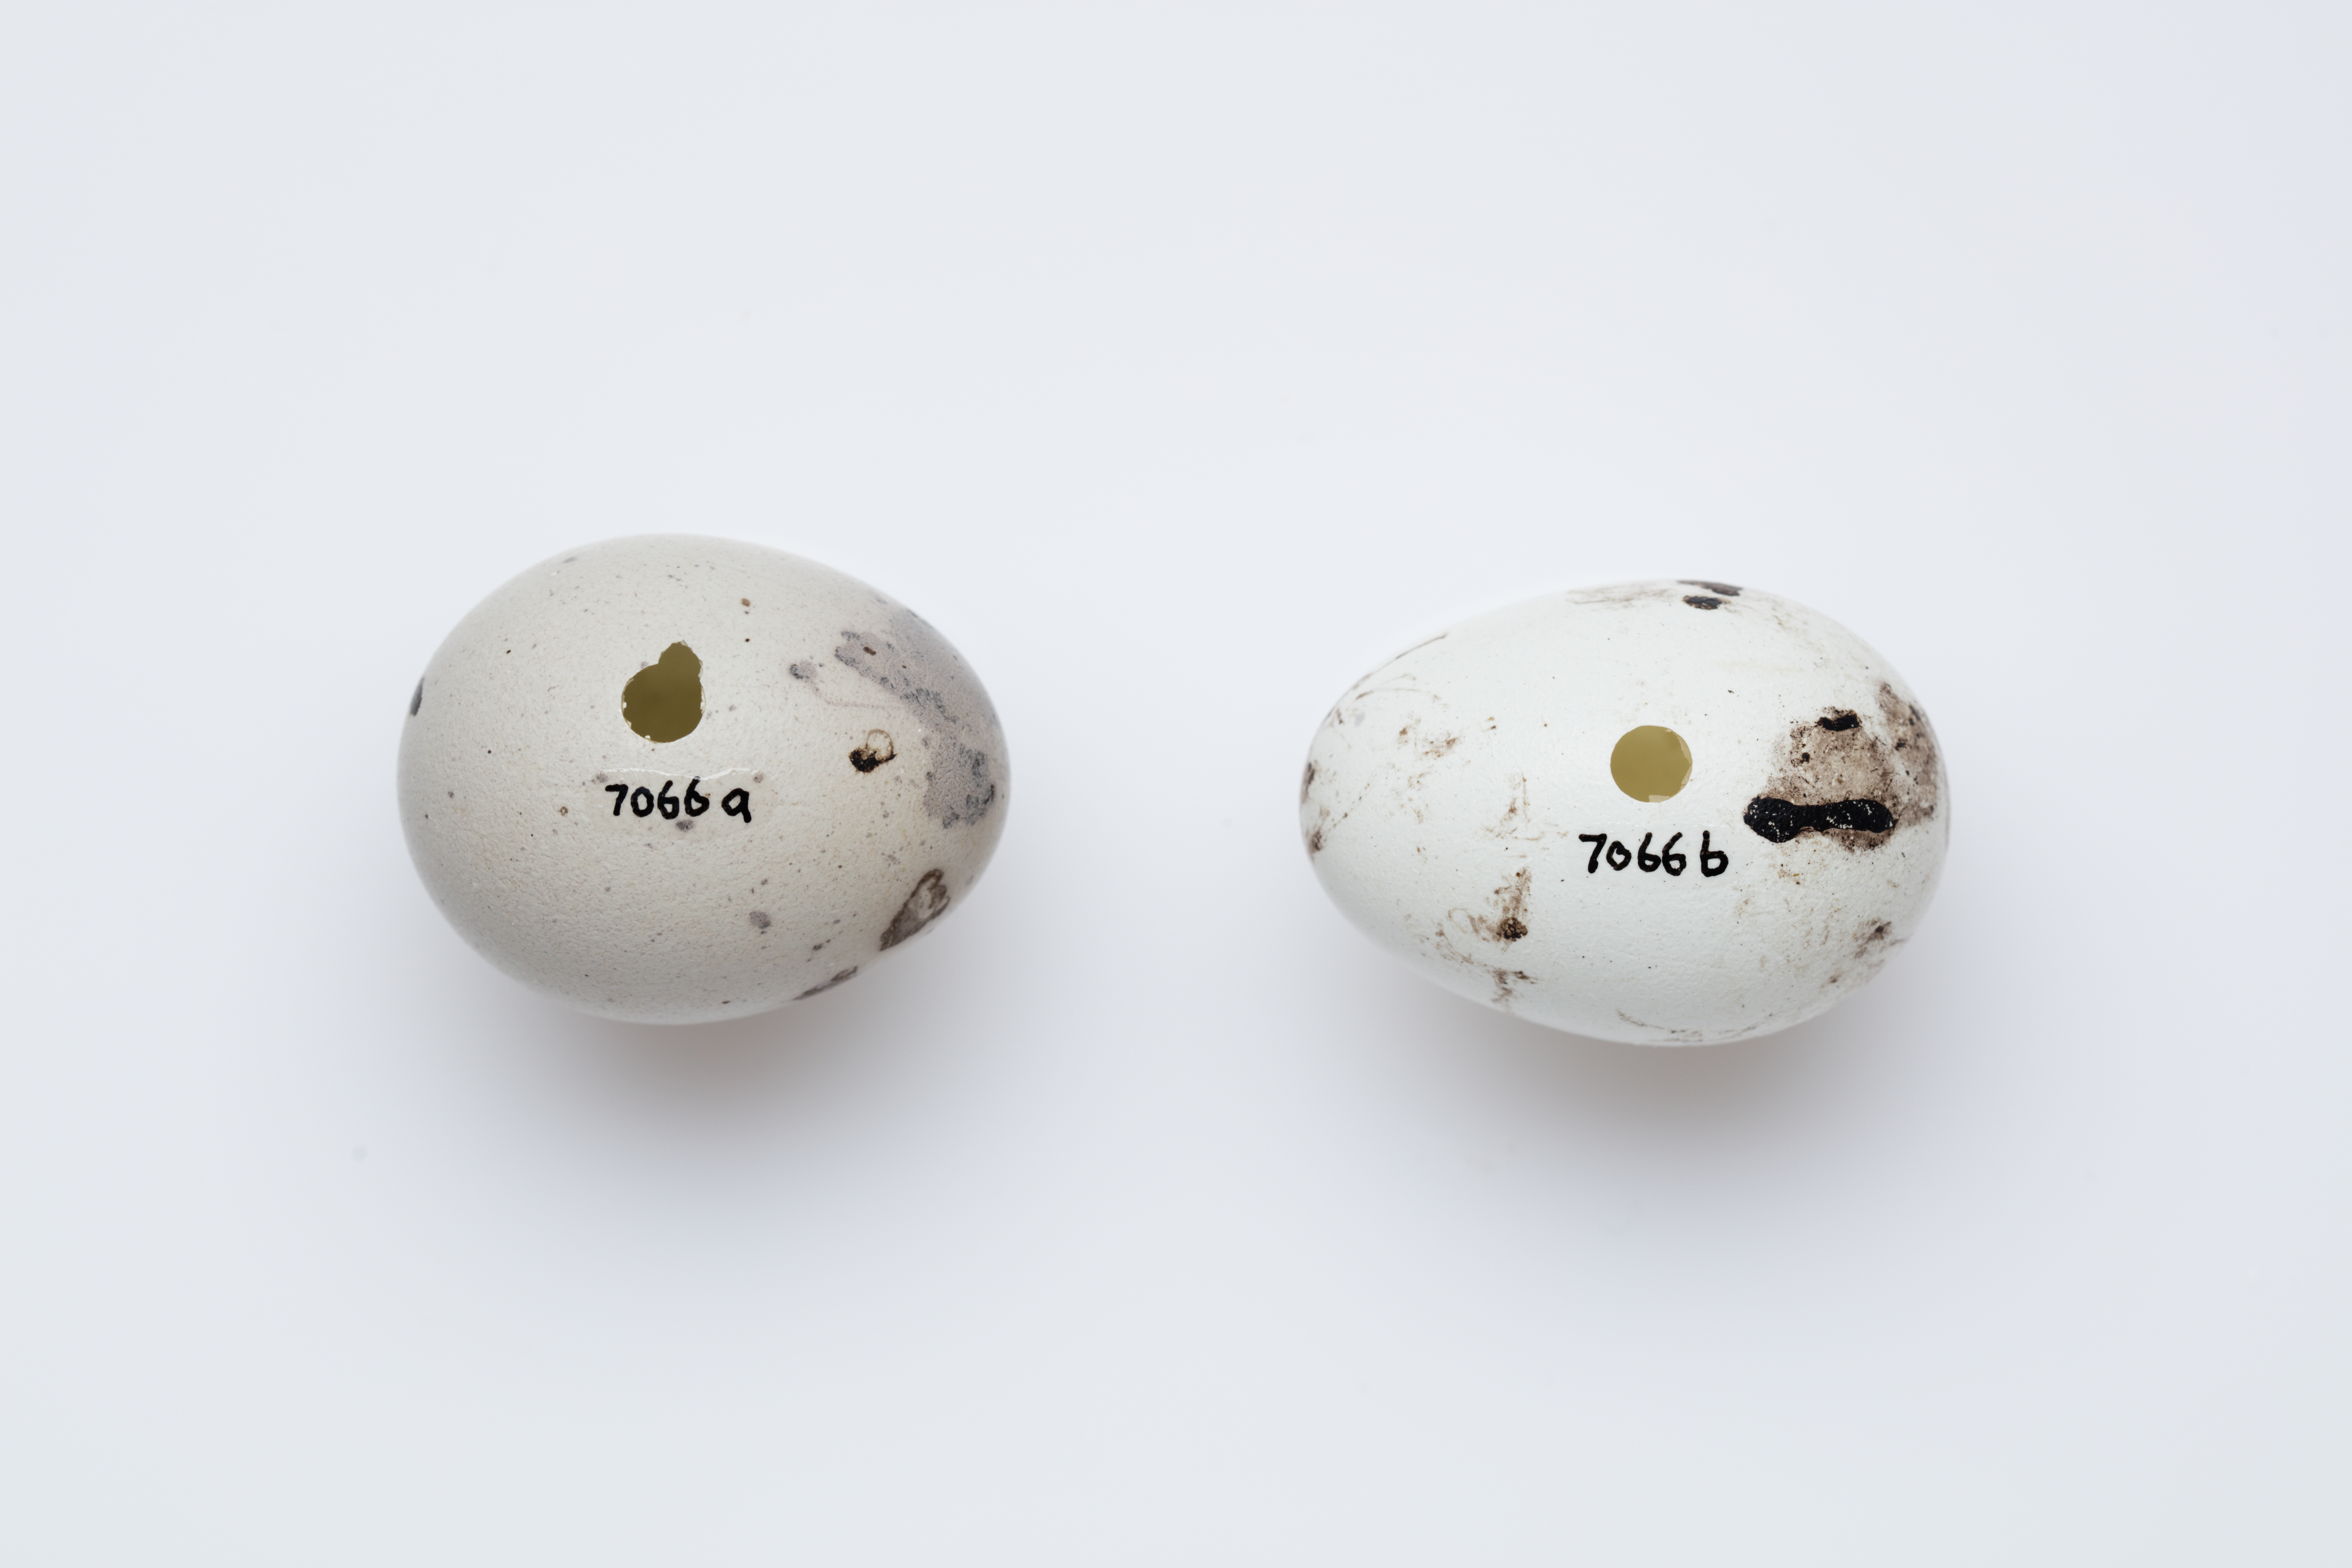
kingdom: Animalia
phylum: Chordata
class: Aves
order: Passeriformes
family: Callaeatidae
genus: Callaeas
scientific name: Callaeas cinereus
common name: South island kokako
